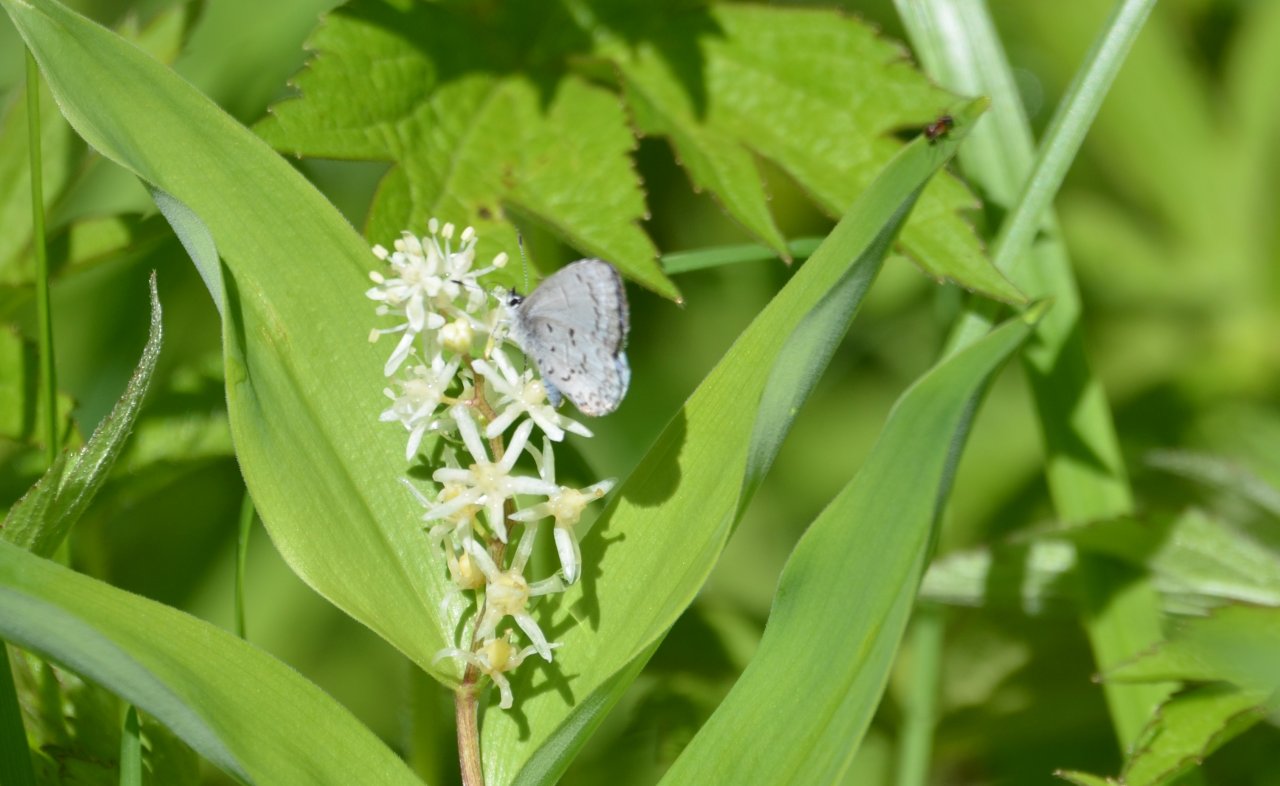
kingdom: Animalia
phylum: Arthropoda
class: Insecta
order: Lepidoptera
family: Lycaenidae
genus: Celastrina
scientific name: Celastrina
